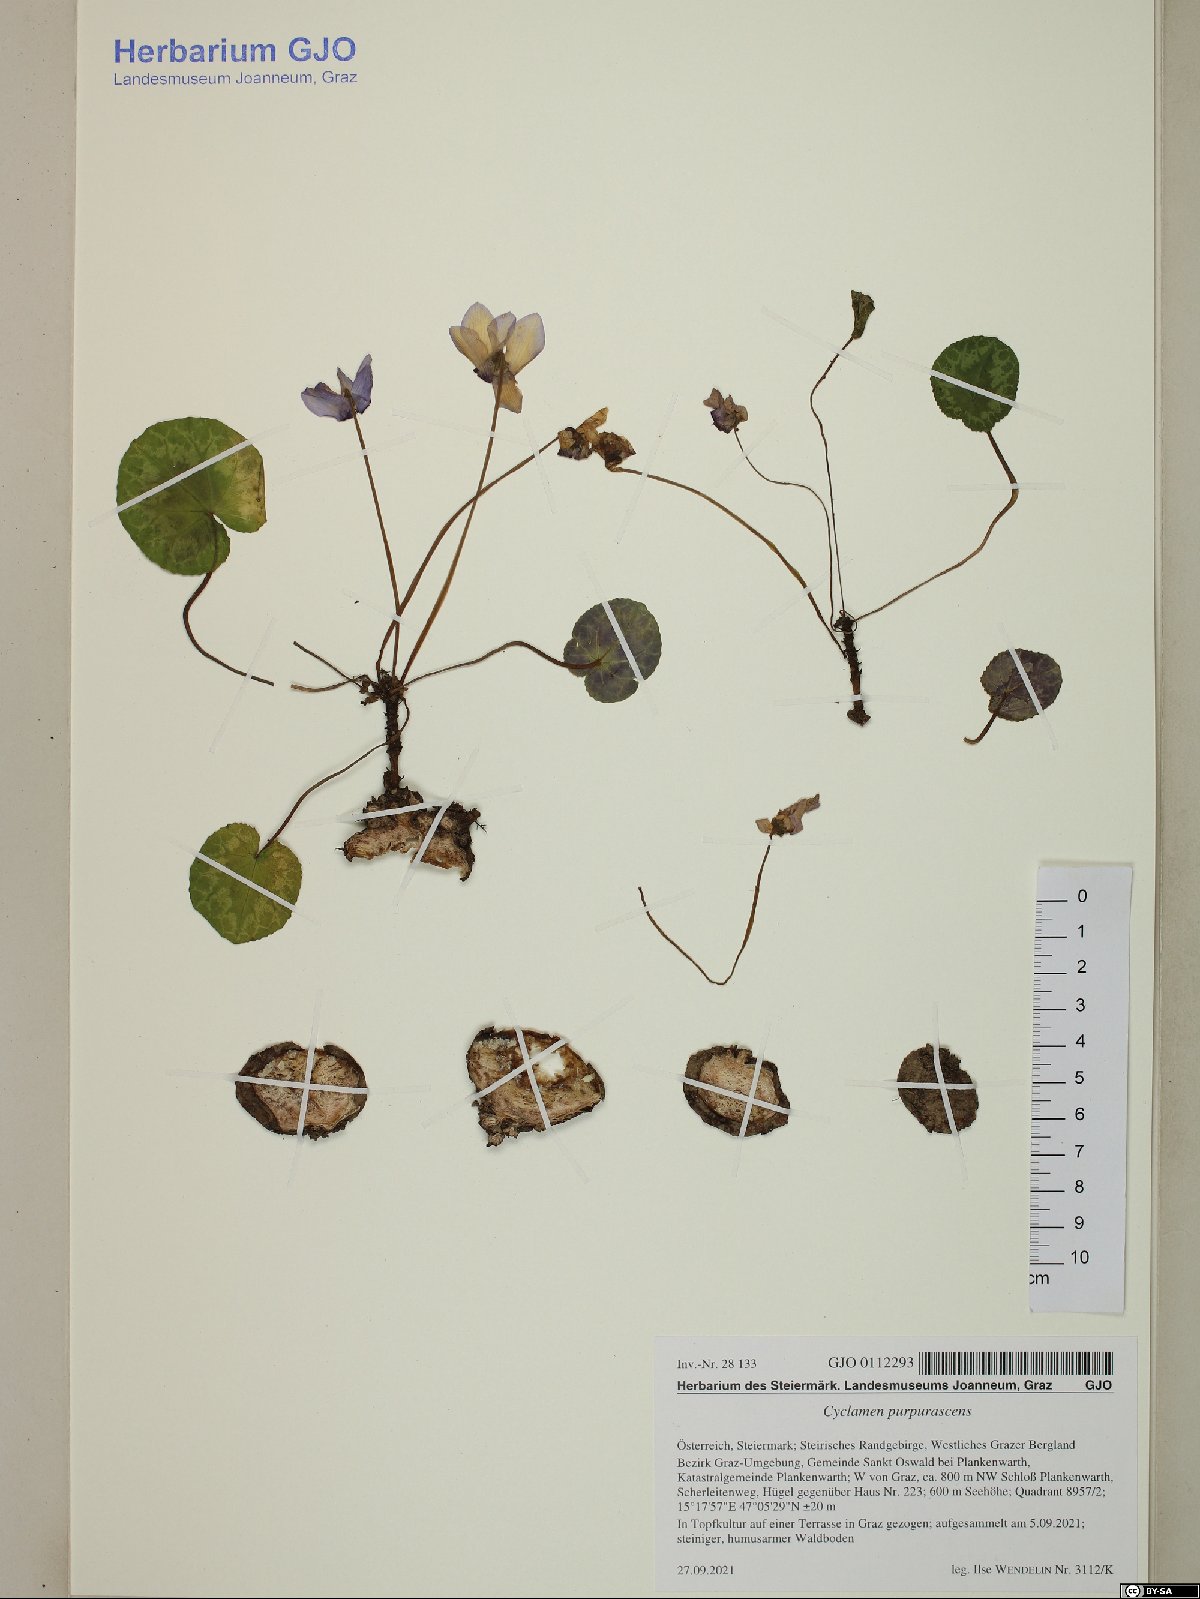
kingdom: Plantae
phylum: Tracheophyta
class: Magnoliopsida
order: Ericales
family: Primulaceae
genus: Cyclamen
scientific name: Cyclamen purpurascens
